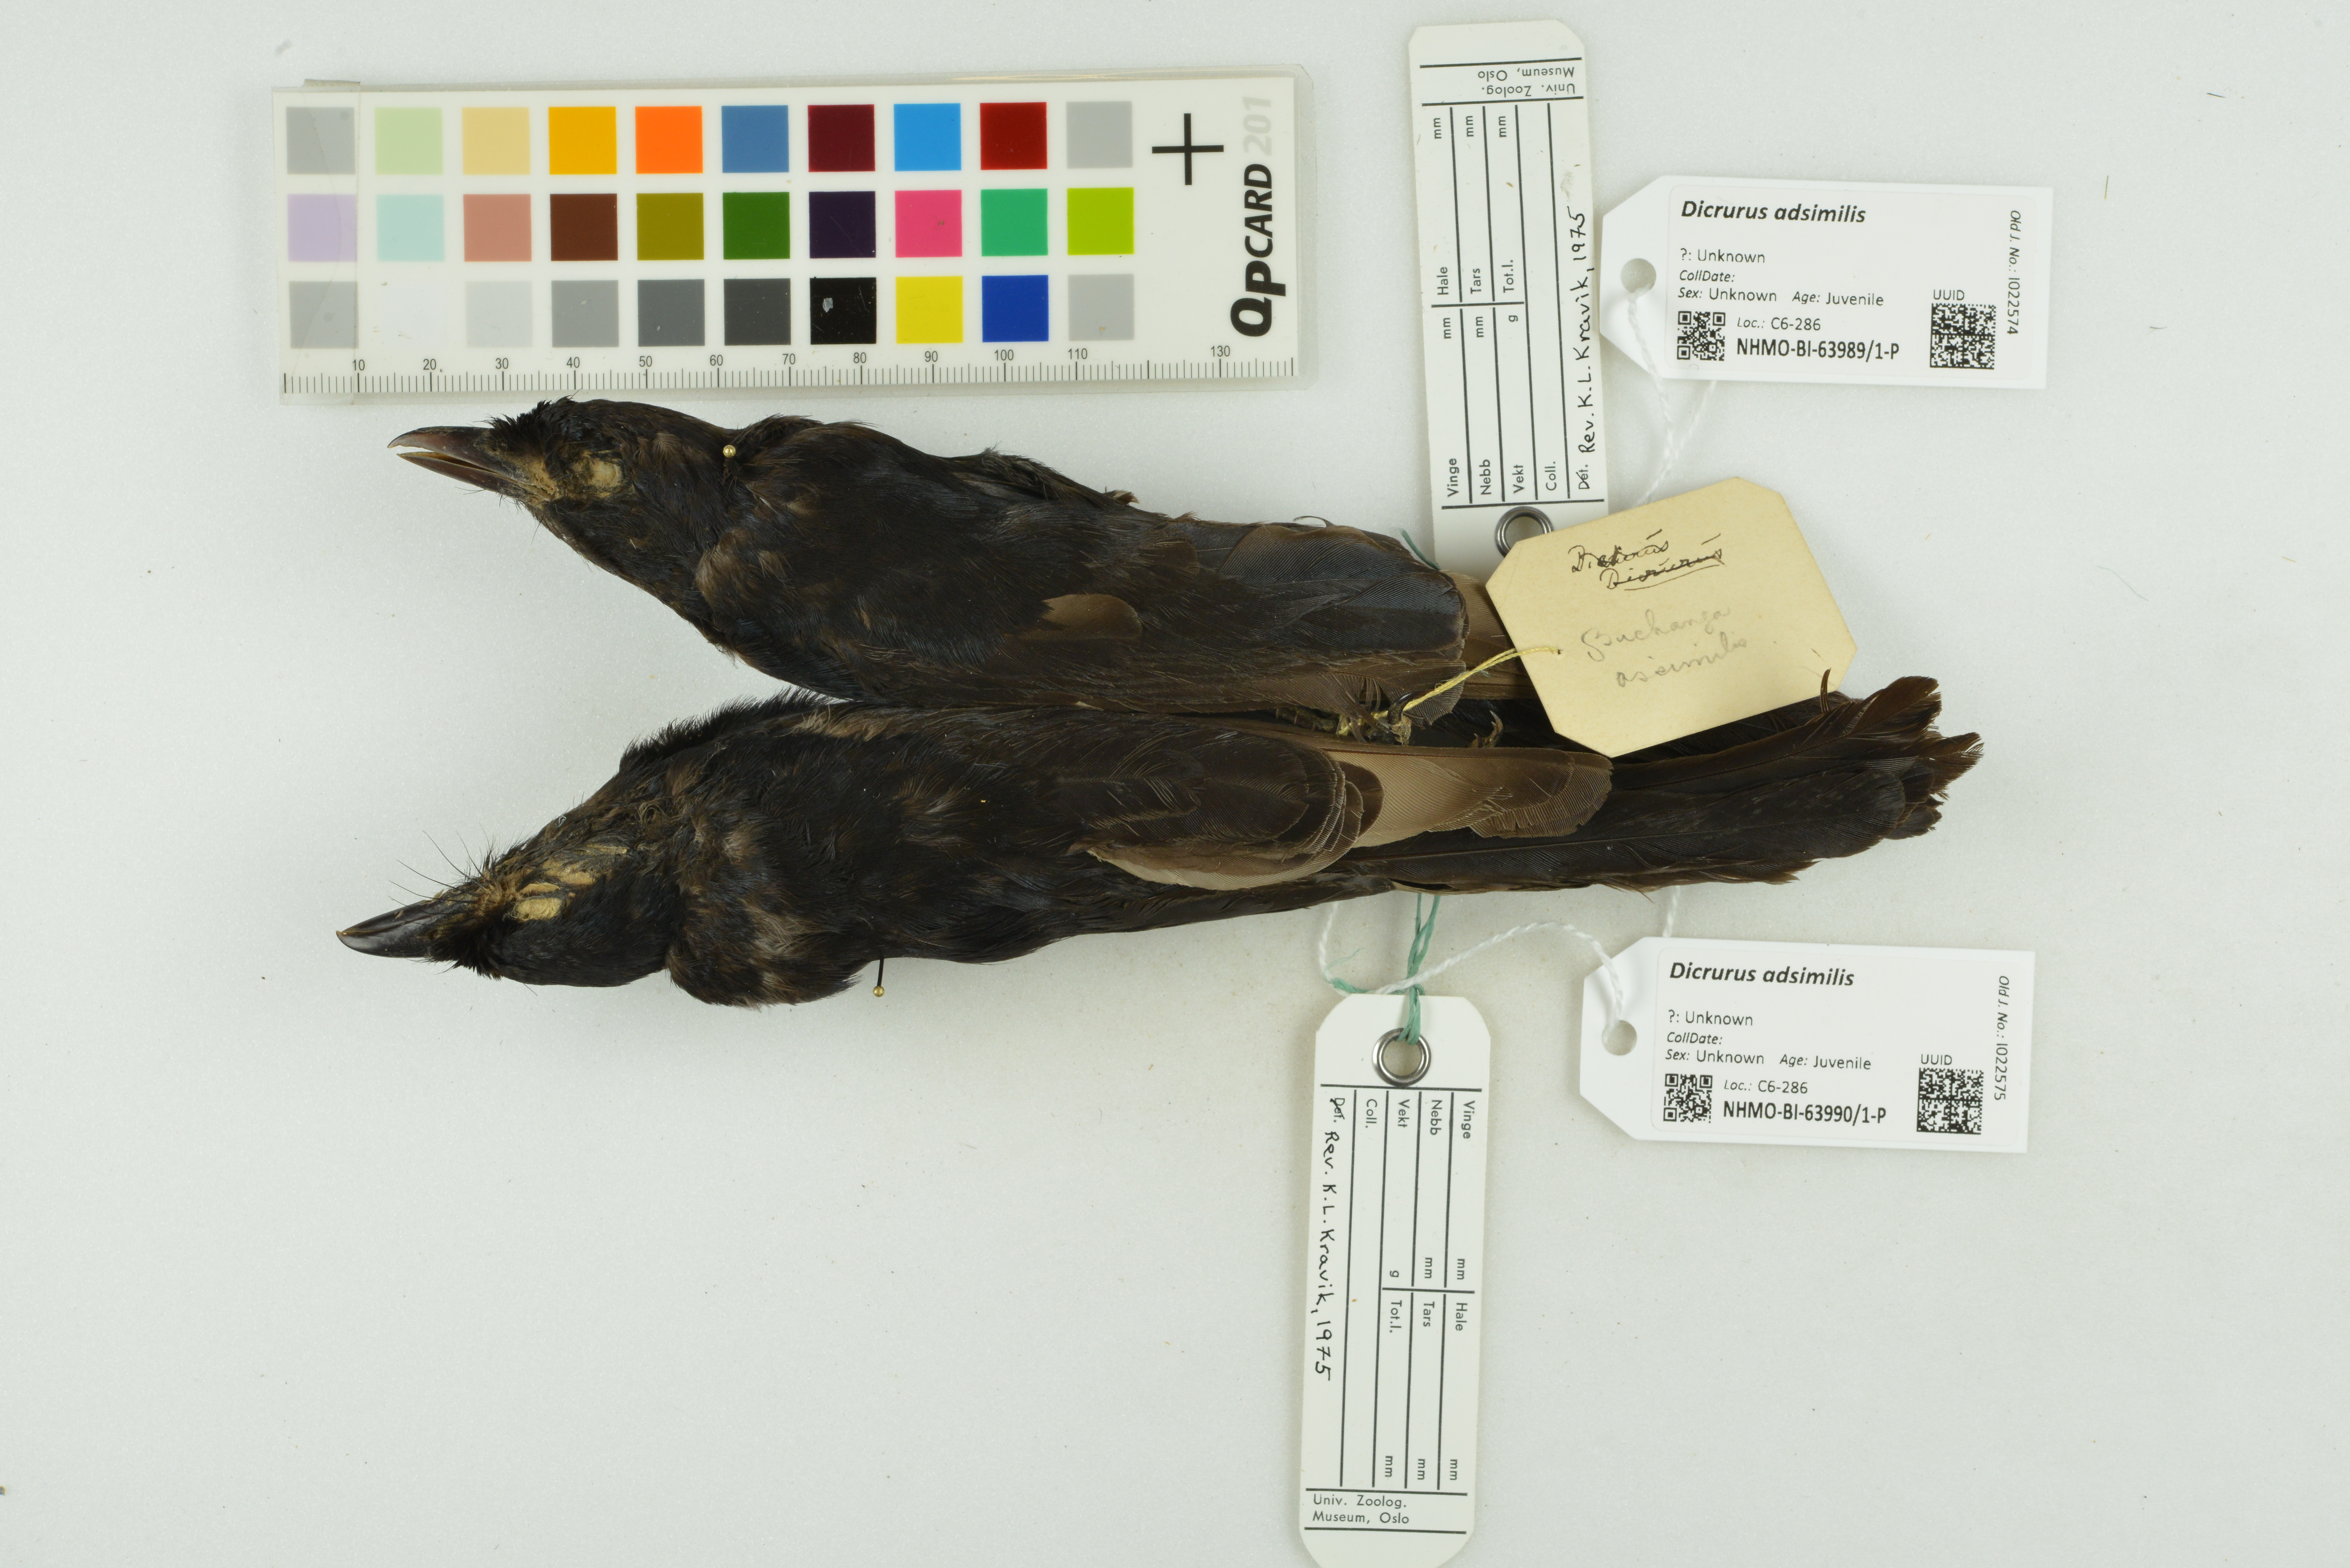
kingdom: Animalia
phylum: Chordata
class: Aves
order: Passeriformes
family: Dicruridae
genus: Dicrurus
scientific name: Dicrurus adsimilis
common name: Fork-tailed drongo
